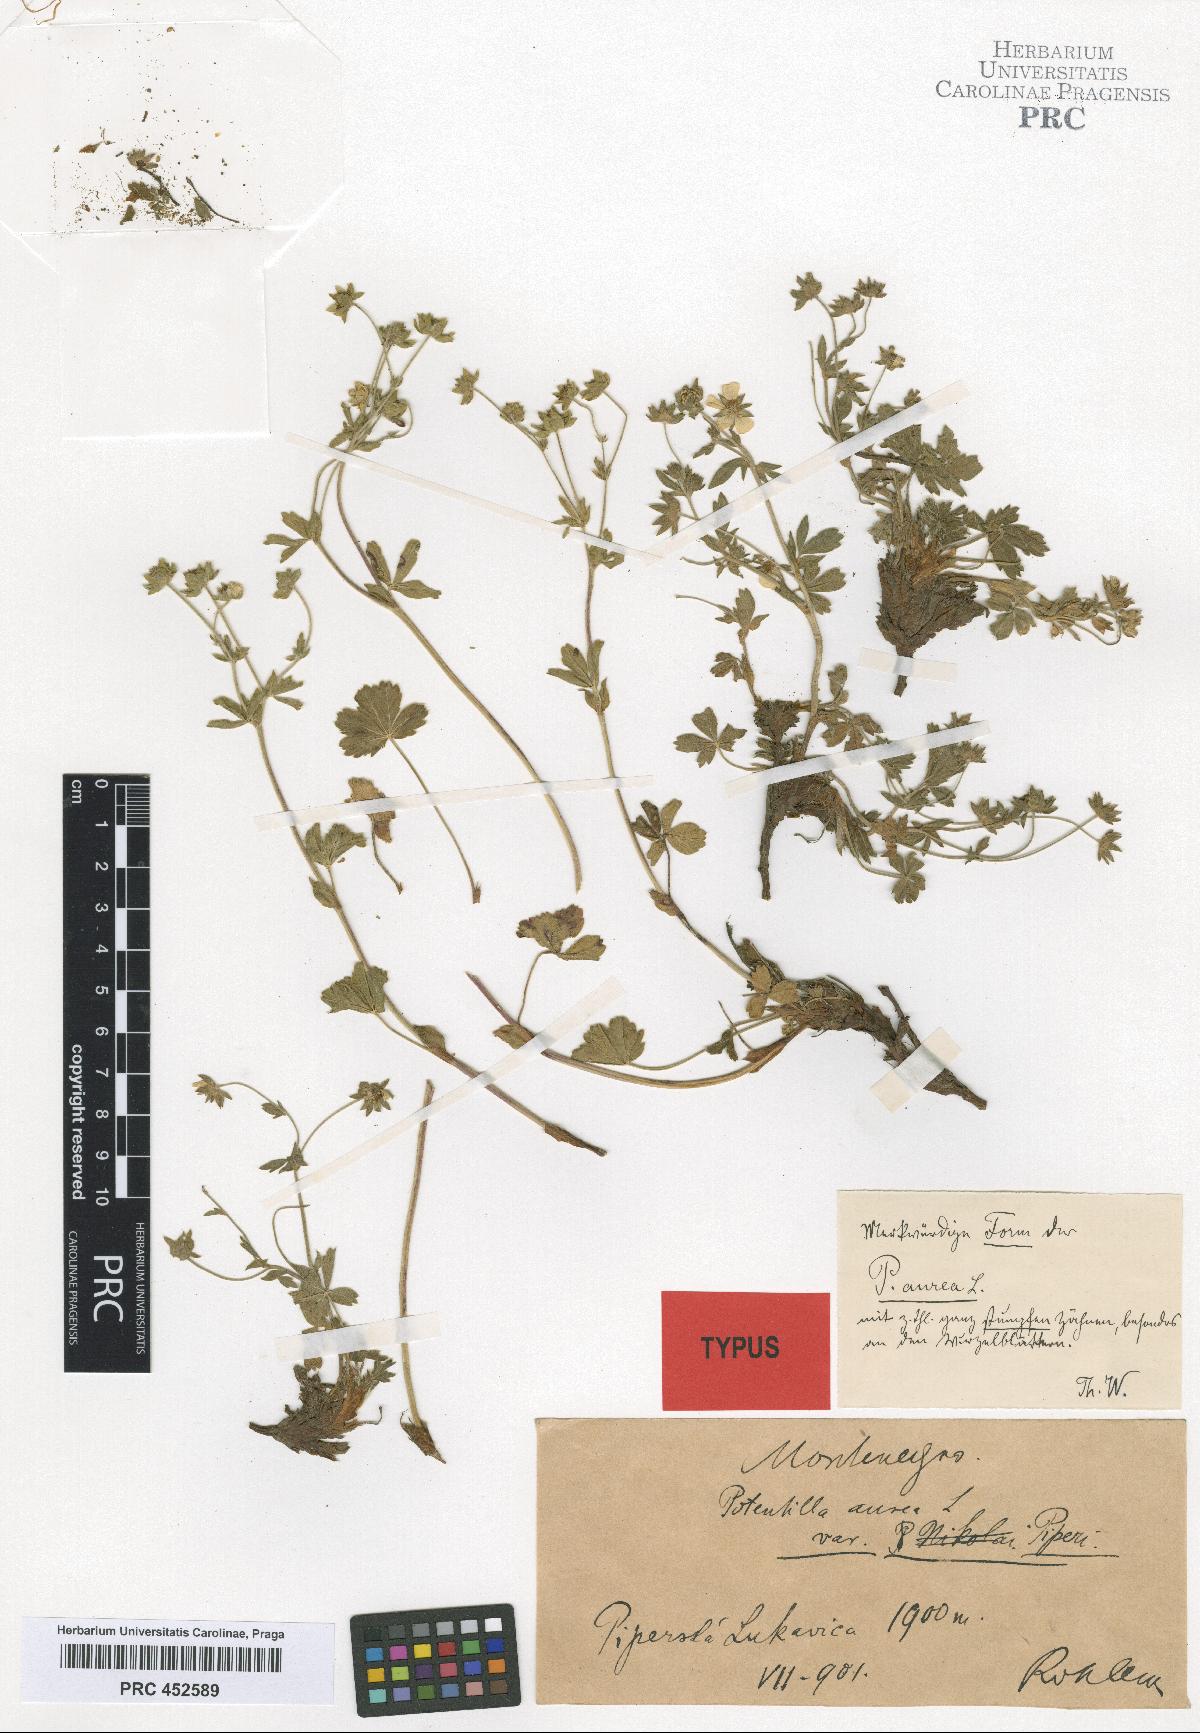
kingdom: Plantae
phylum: Tracheophyta
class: Magnoliopsida
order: Rosales
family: Rosaceae
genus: Potentilla
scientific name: Potentilla aurea
